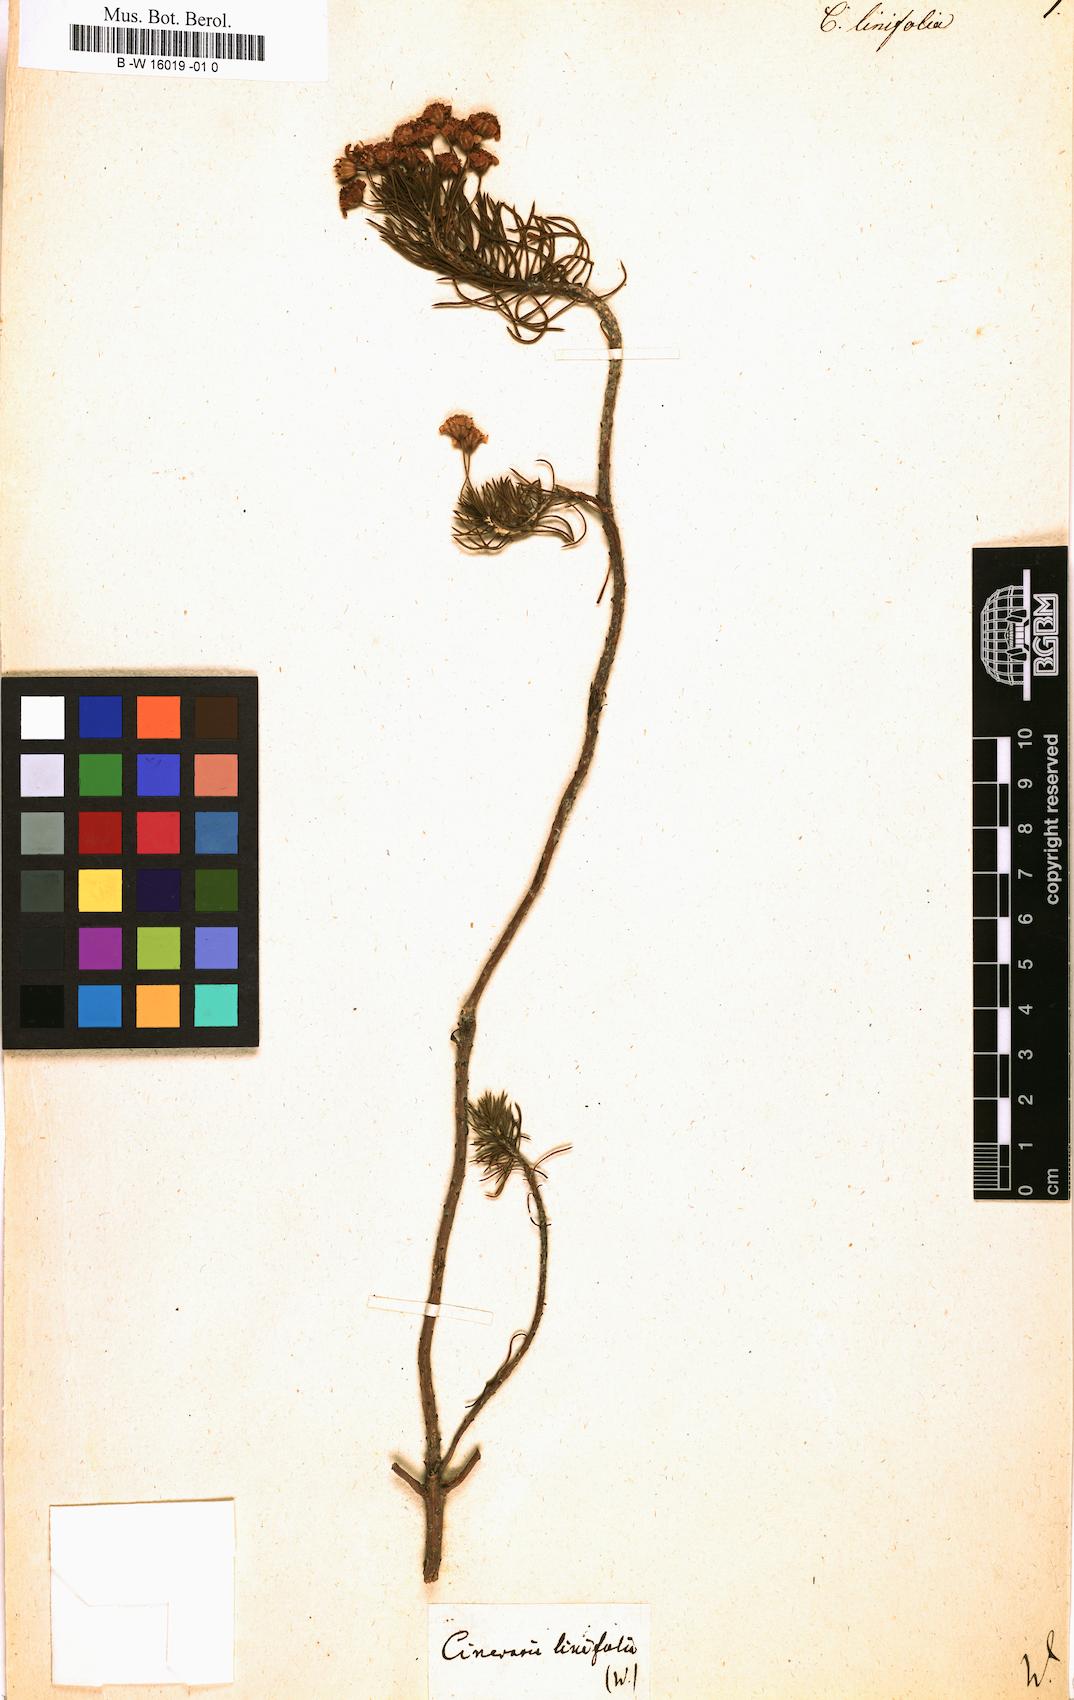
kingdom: Plantae
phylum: Tracheophyta
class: Magnoliopsida
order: Asterales
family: Asteraceae
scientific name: Asteraceae
